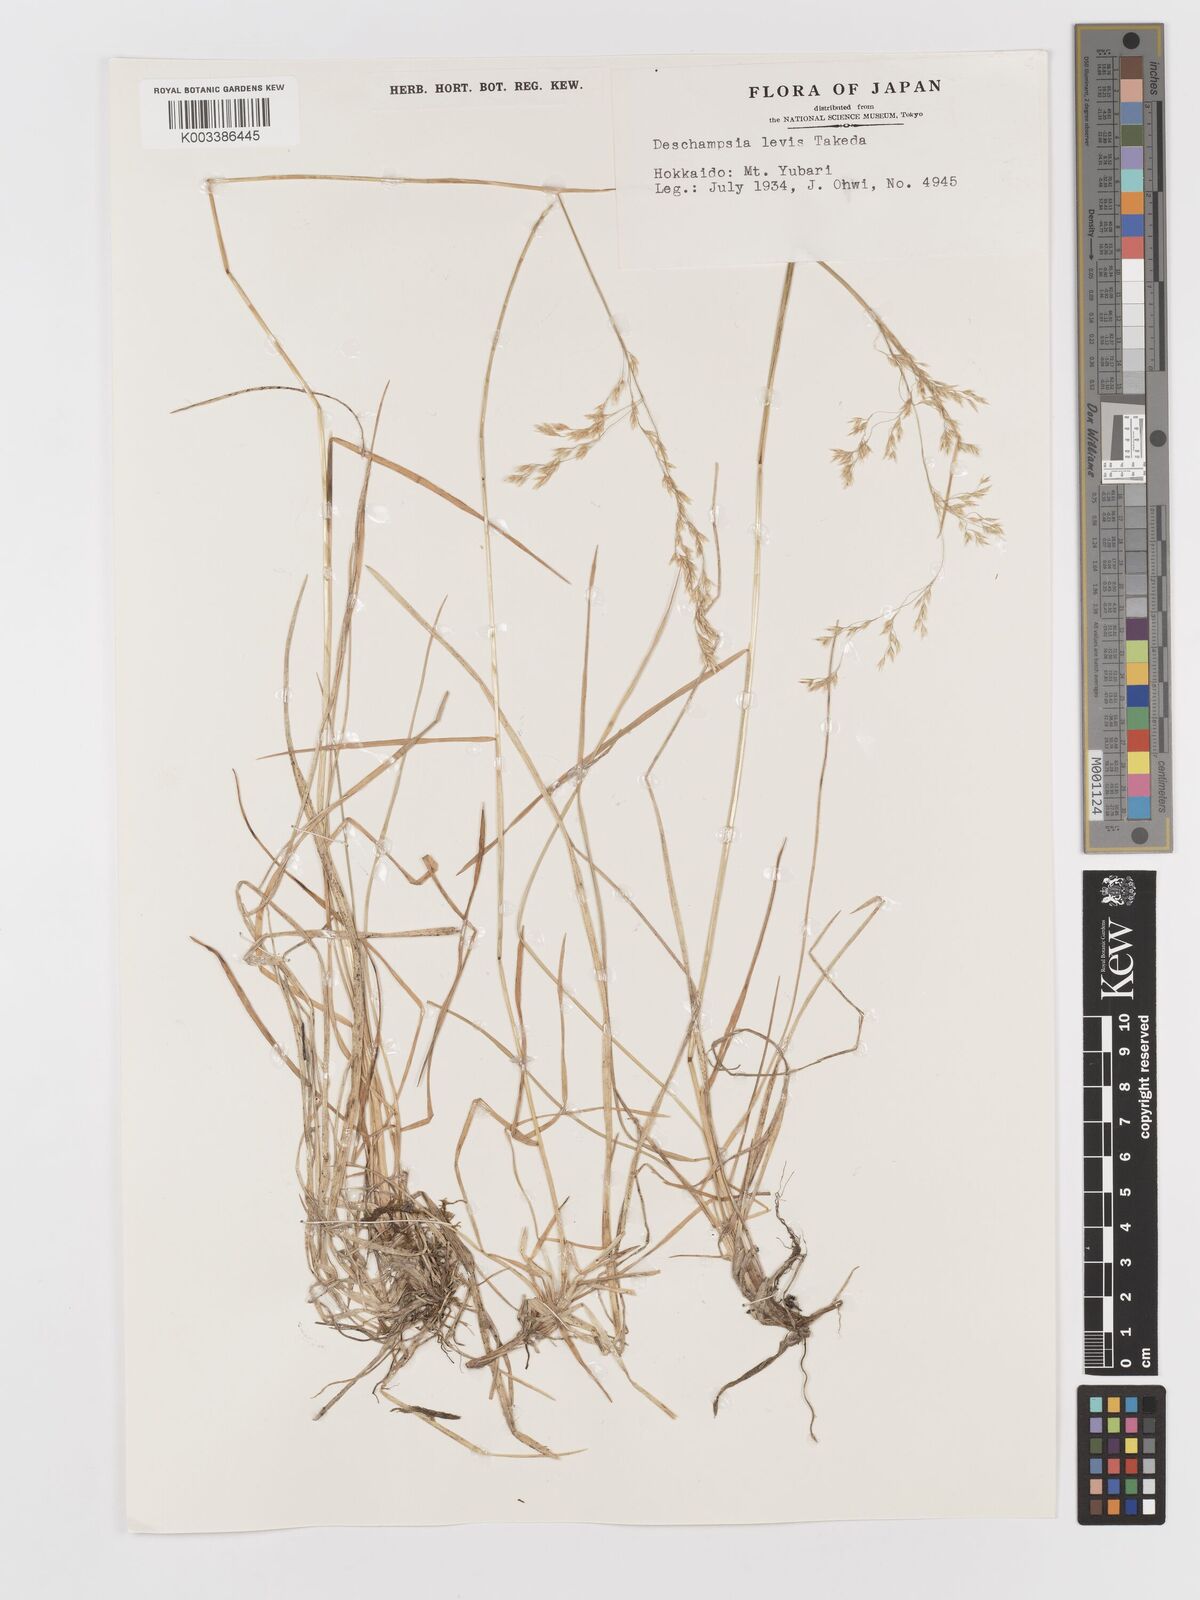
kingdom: Plantae
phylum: Tracheophyta
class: Liliopsida
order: Poales
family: Poaceae
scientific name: Poaceae
